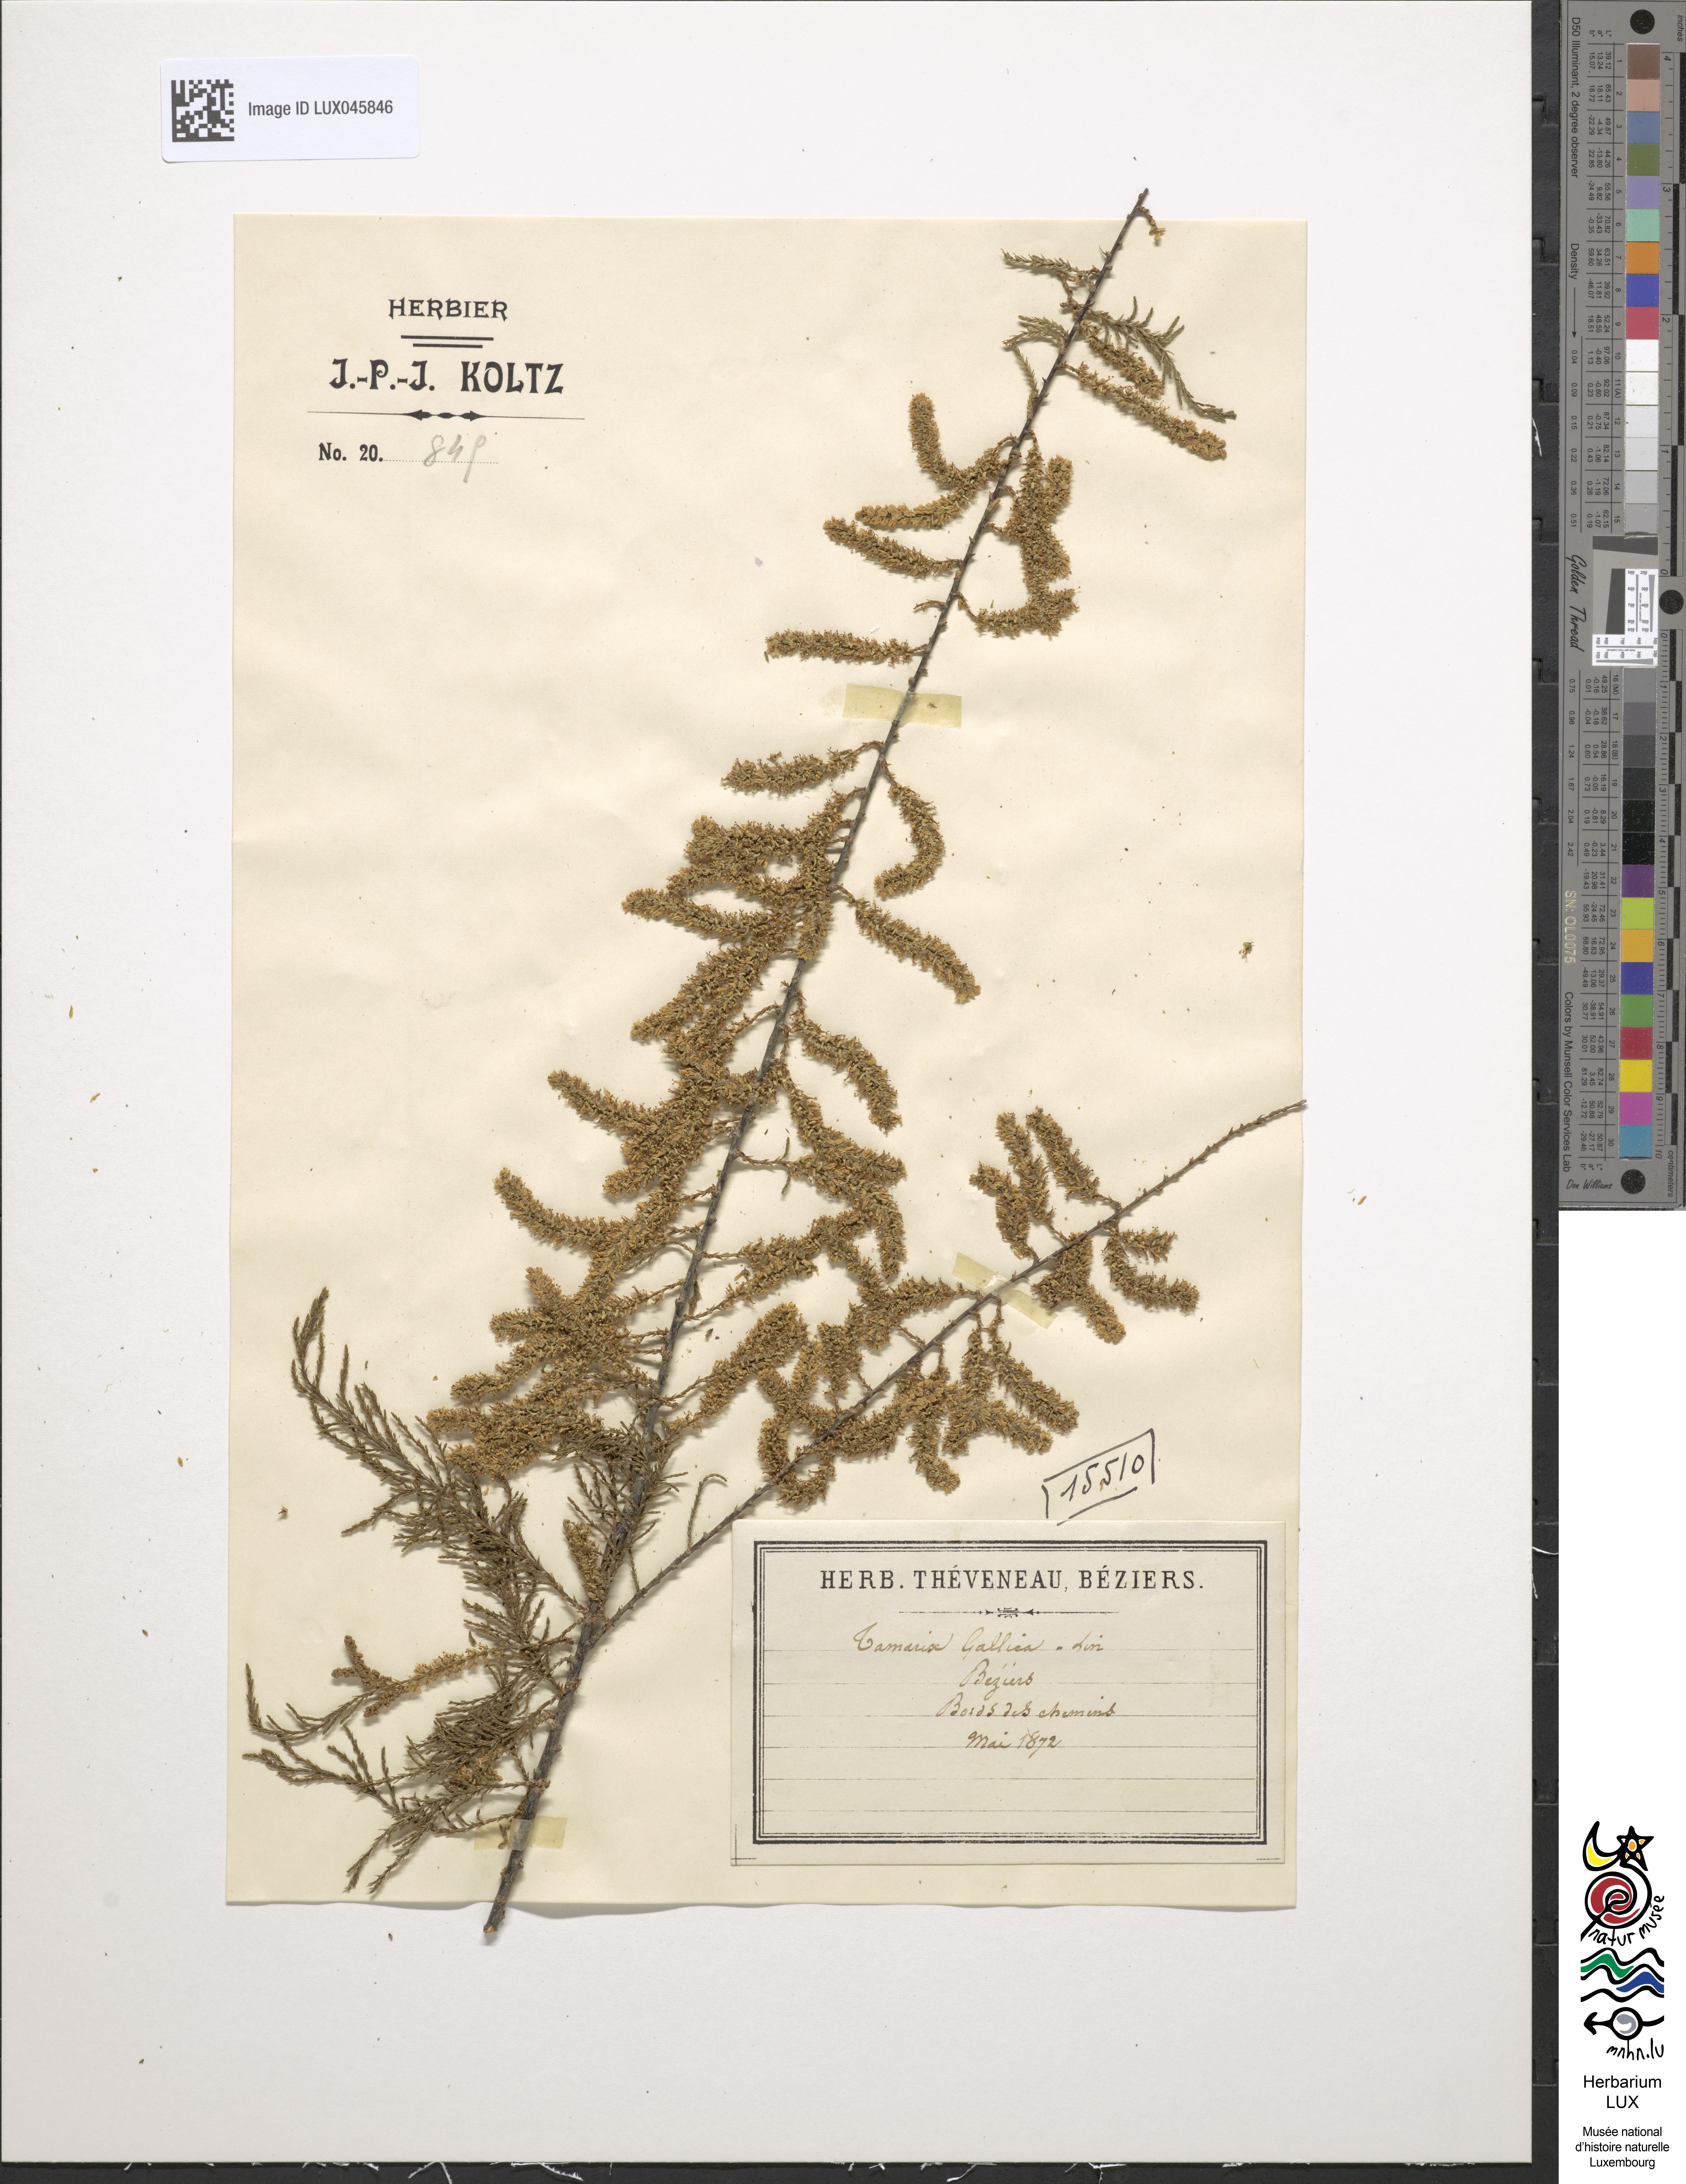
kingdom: Plantae
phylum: Tracheophyta
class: Magnoliopsida
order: Caryophyllales
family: Tamaricaceae
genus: Tamarix
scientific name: Tamarix gallica
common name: Tamarisk
